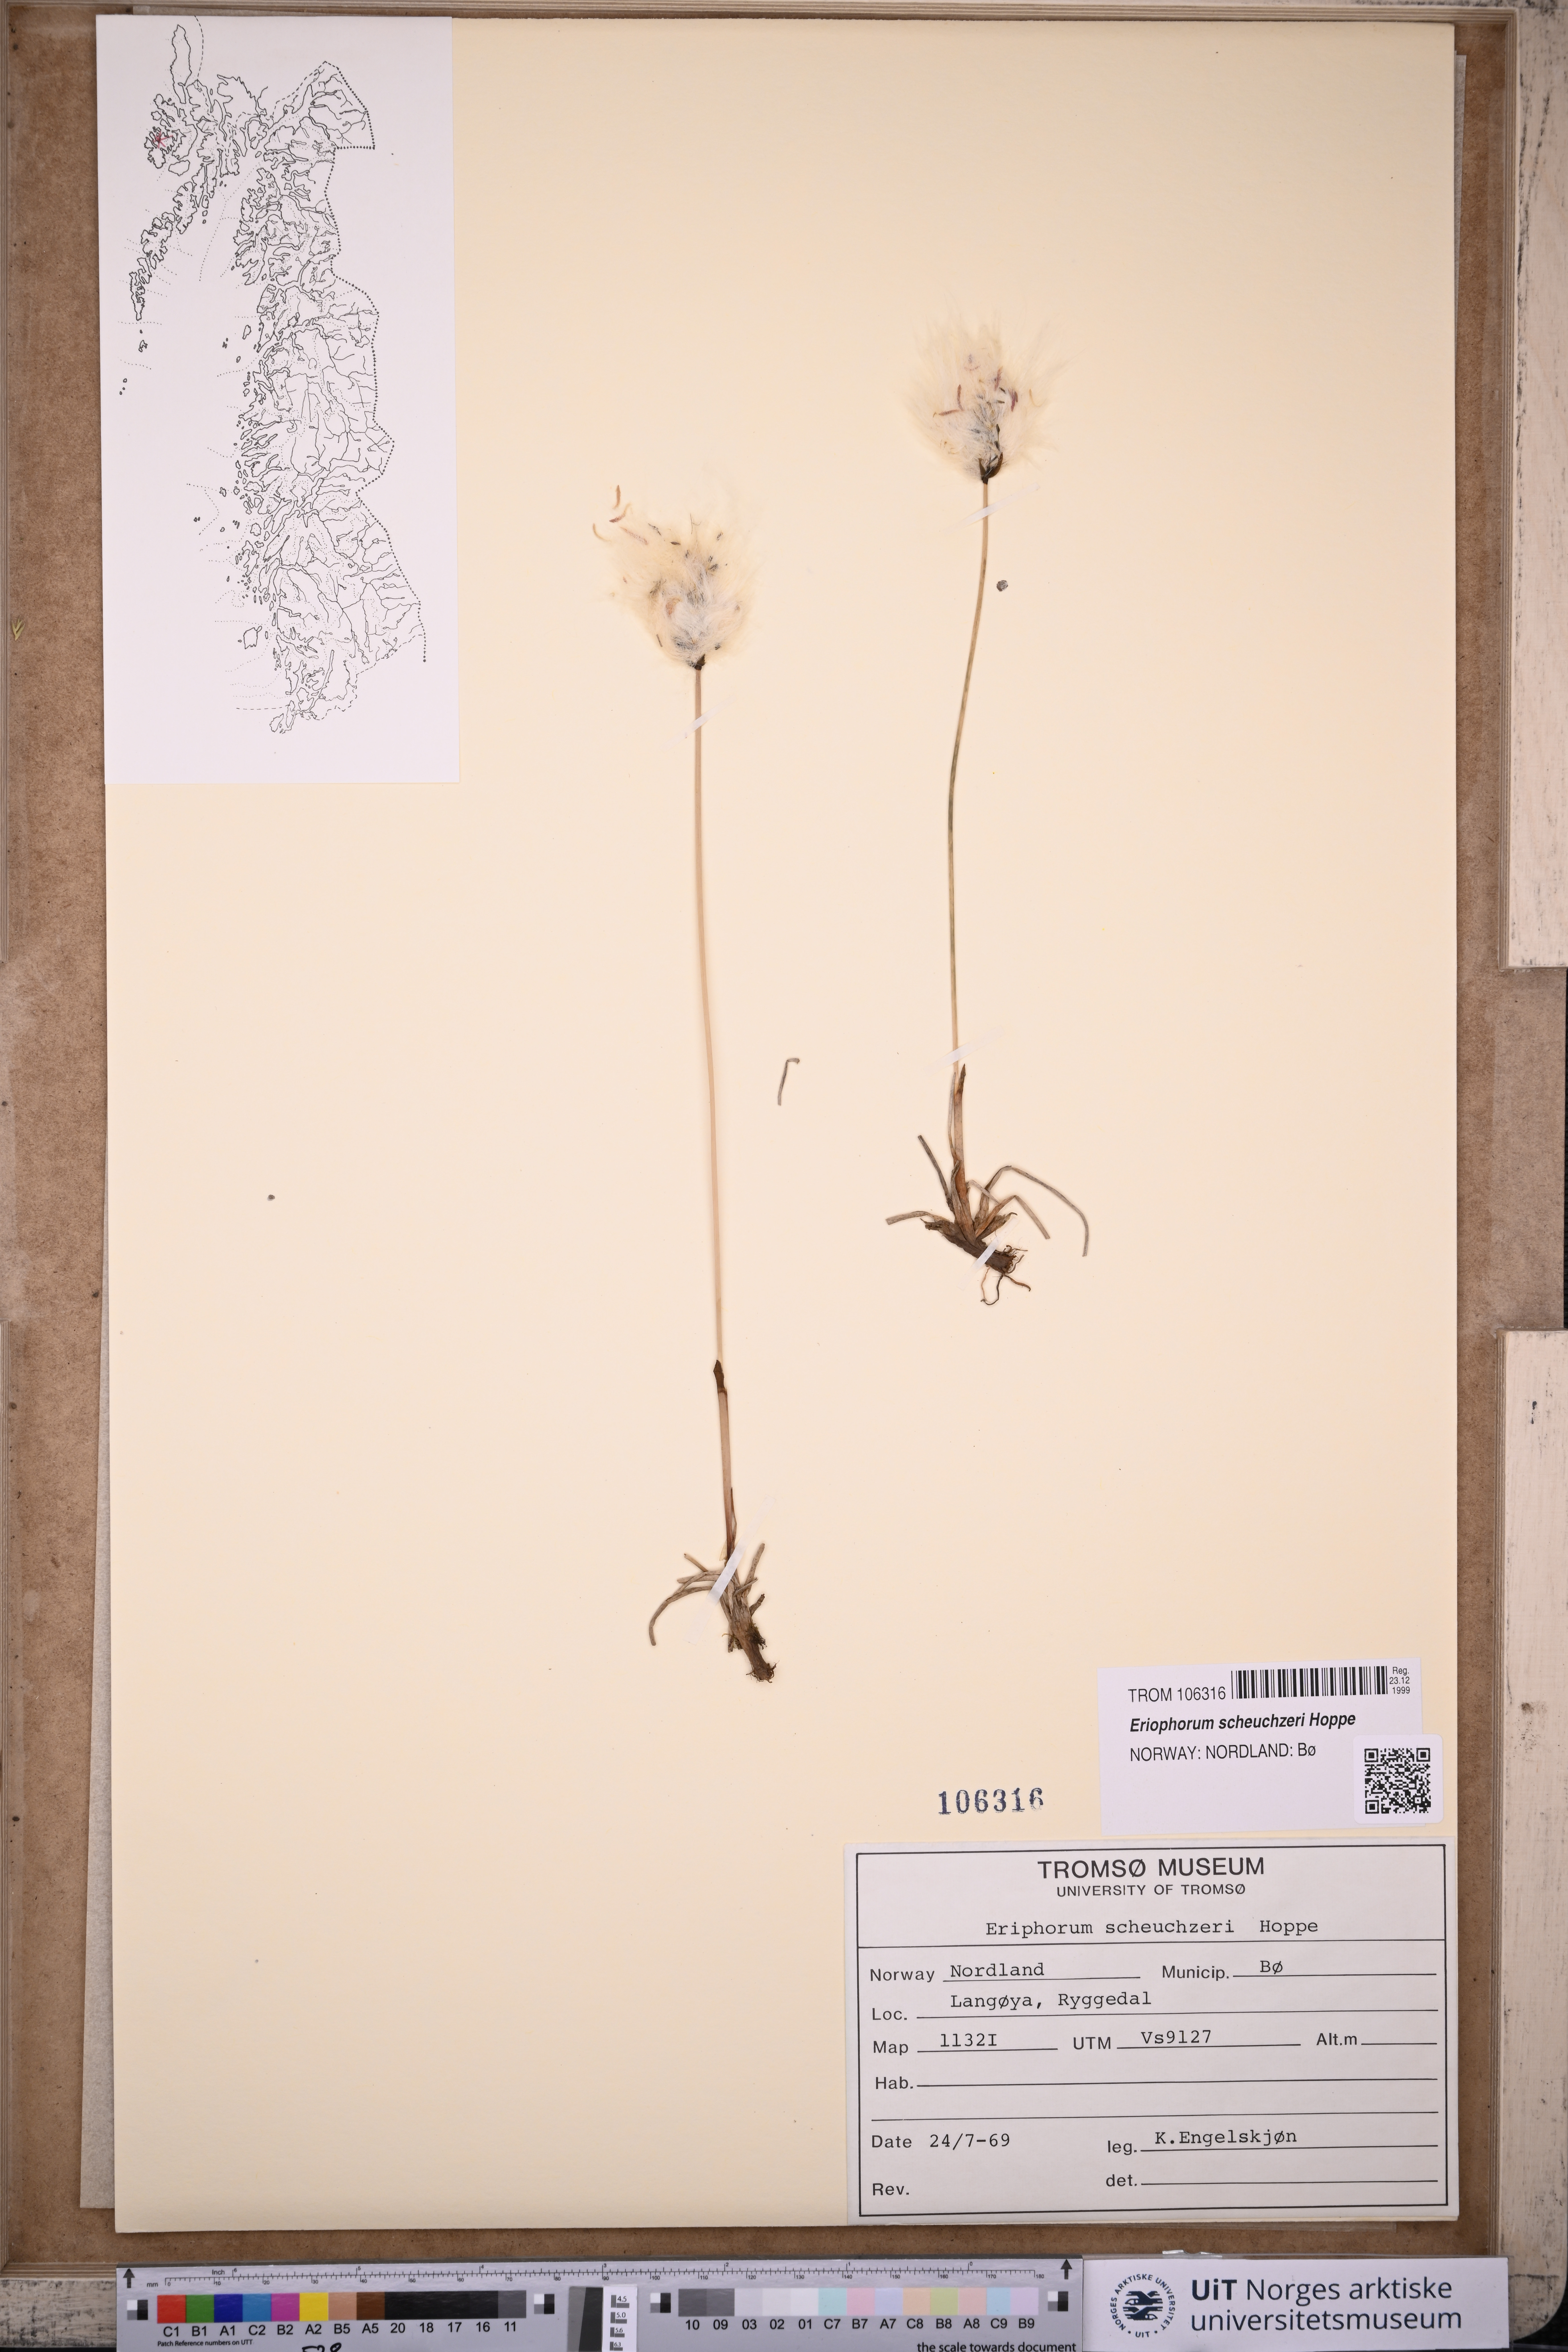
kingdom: Plantae
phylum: Tracheophyta
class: Liliopsida
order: Poales
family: Cyperaceae
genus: Eriophorum
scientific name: Eriophorum scheuchzeri
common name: Scheuchzer's cottongrass
